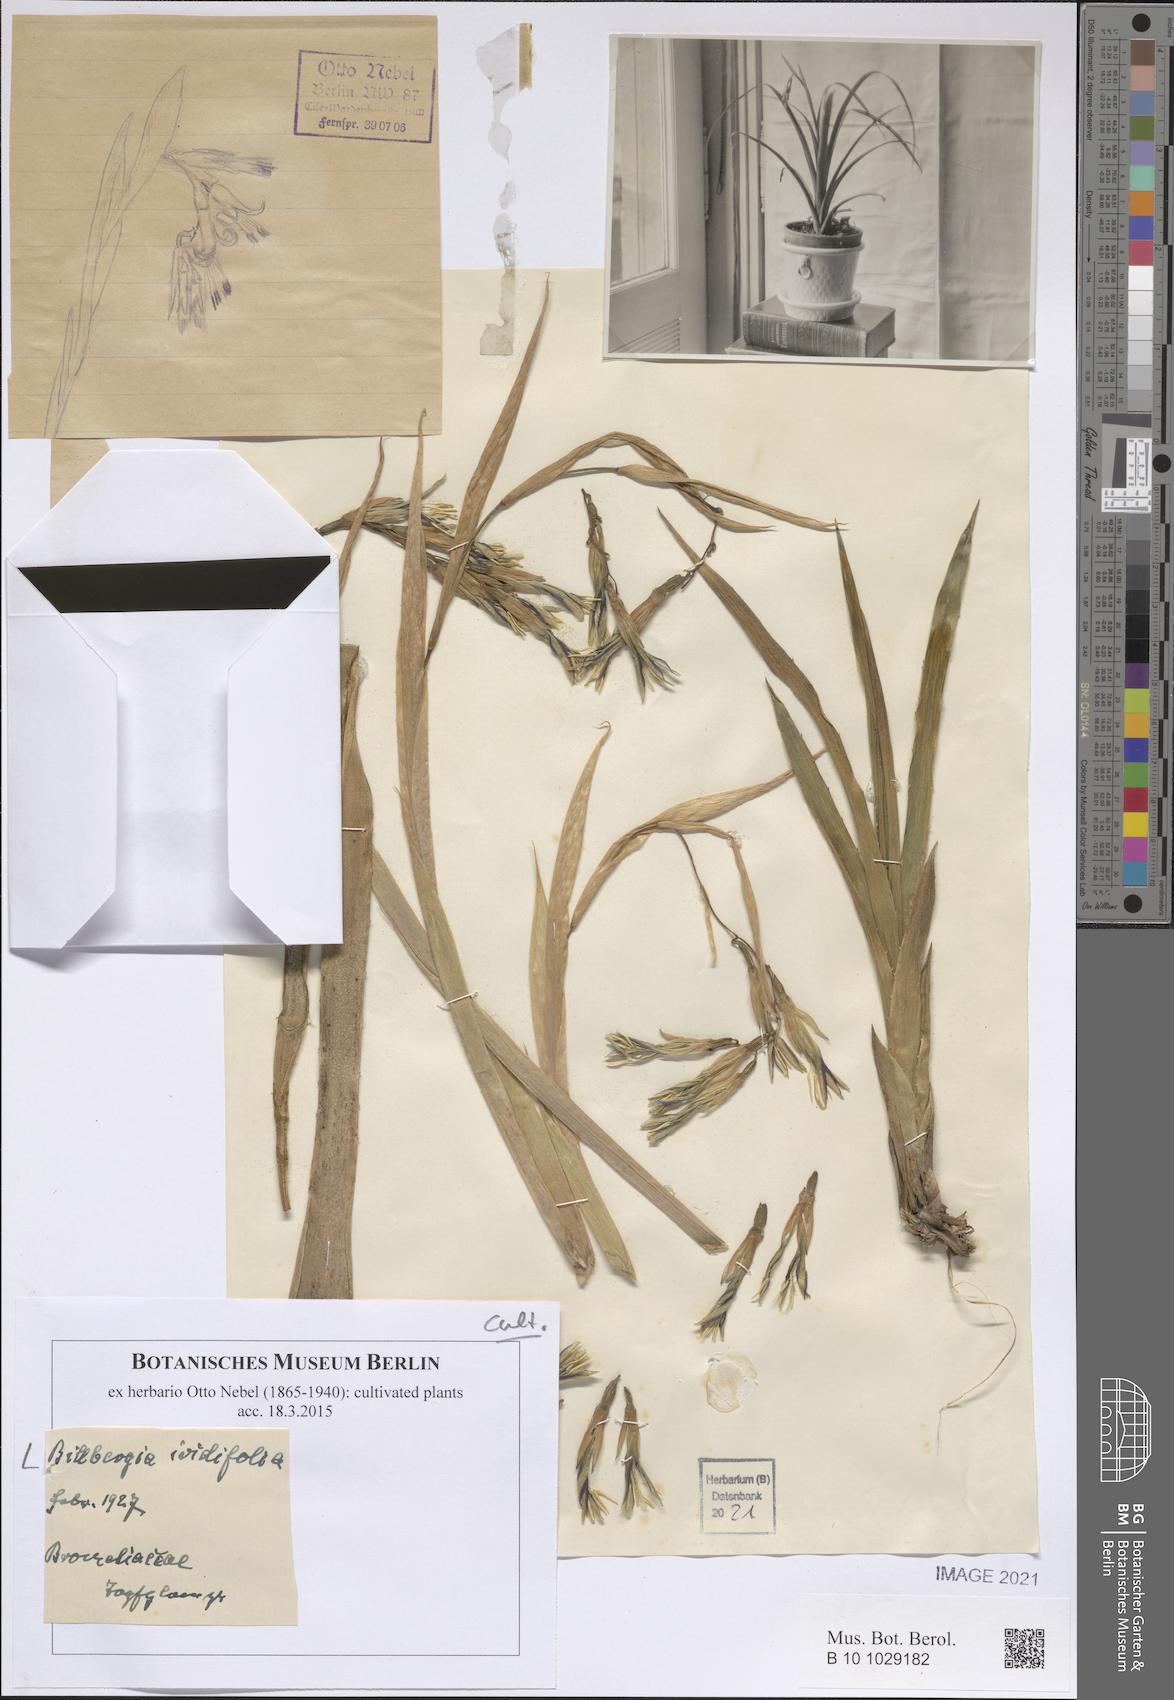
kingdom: Plantae
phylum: Tracheophyta
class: Liliopsida
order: Poales
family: Bromeliaceae
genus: Billbergia
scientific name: Billbergia iridifolia
